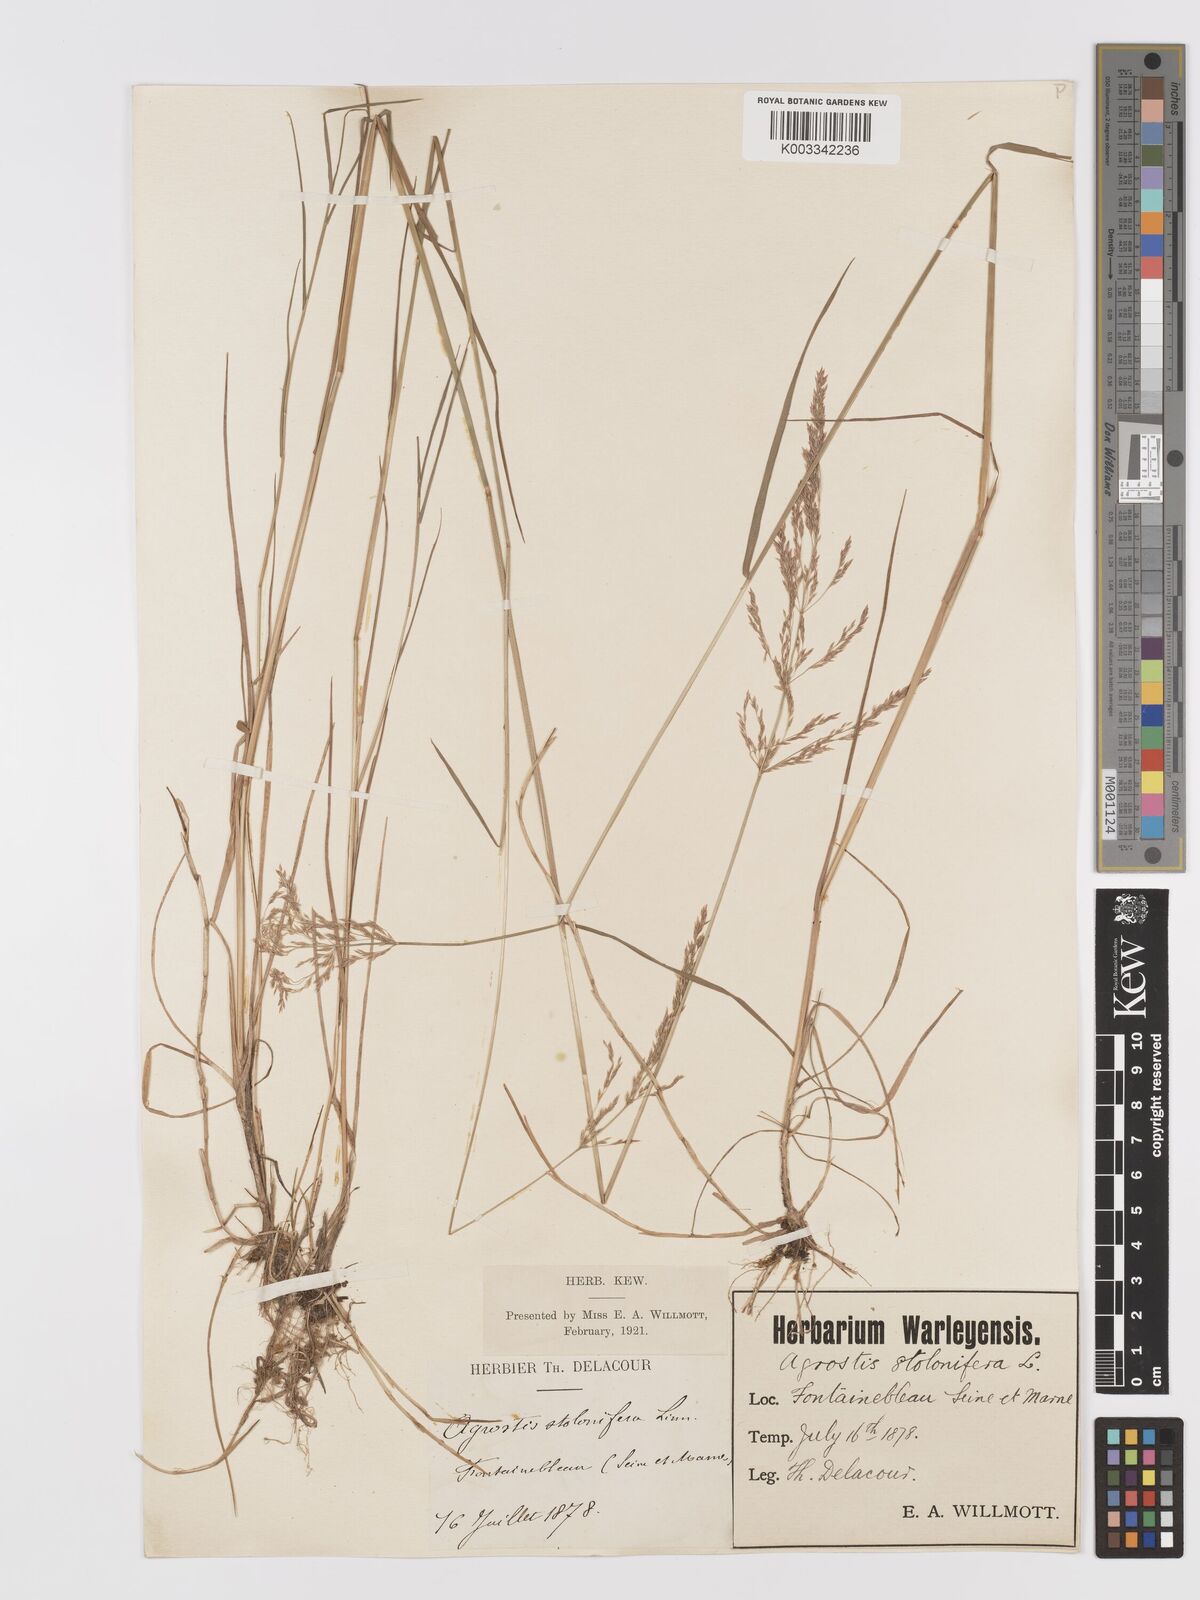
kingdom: Plantae
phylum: Tracheophyta
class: Liliopsida
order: Poales
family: Poaceae
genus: Agrostis
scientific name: Agrostis stolonifera
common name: Creeping bentgrass
